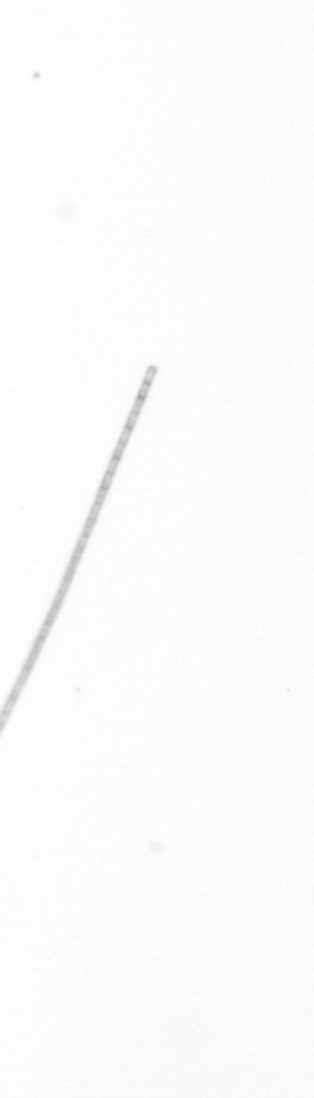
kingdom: Chromista
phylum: Ochrophyta
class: Bacillariophyceae
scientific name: Bacillariophyceae
